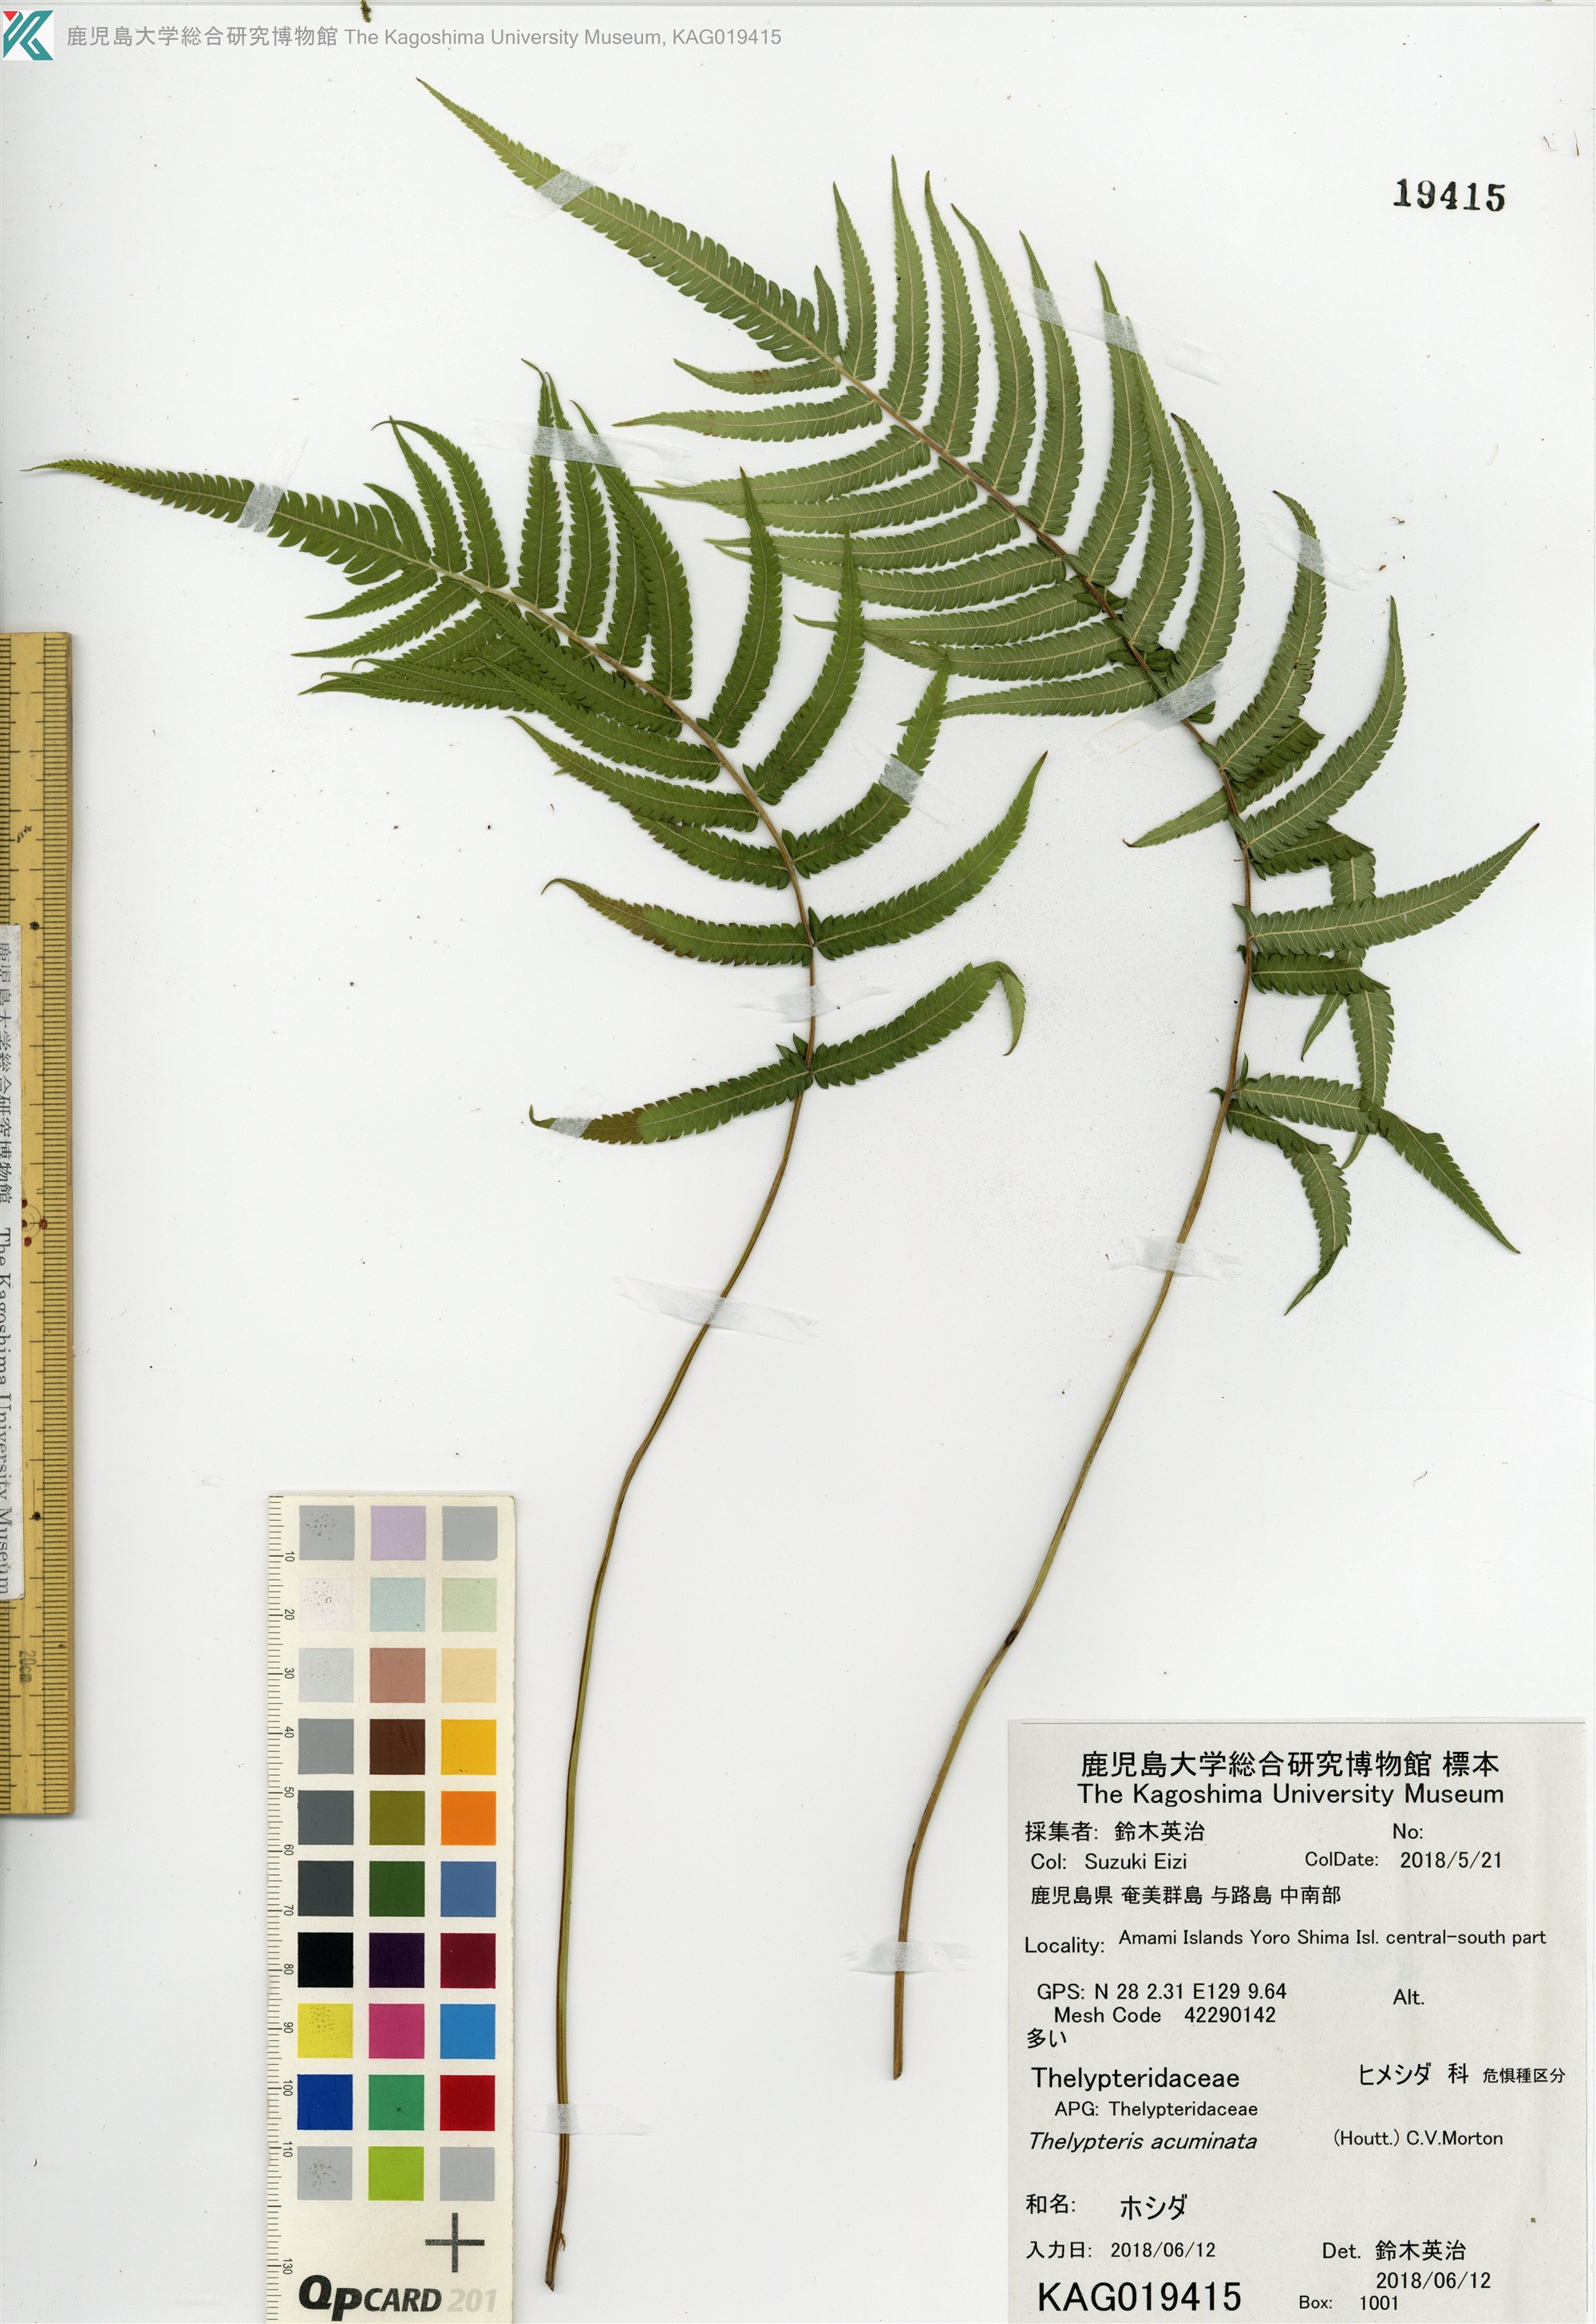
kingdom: Plantae
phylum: Tracheophyta
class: Polypodiopsida
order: Polypodiales
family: Thelypteridaceae
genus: Christella
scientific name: Christella acuminata
